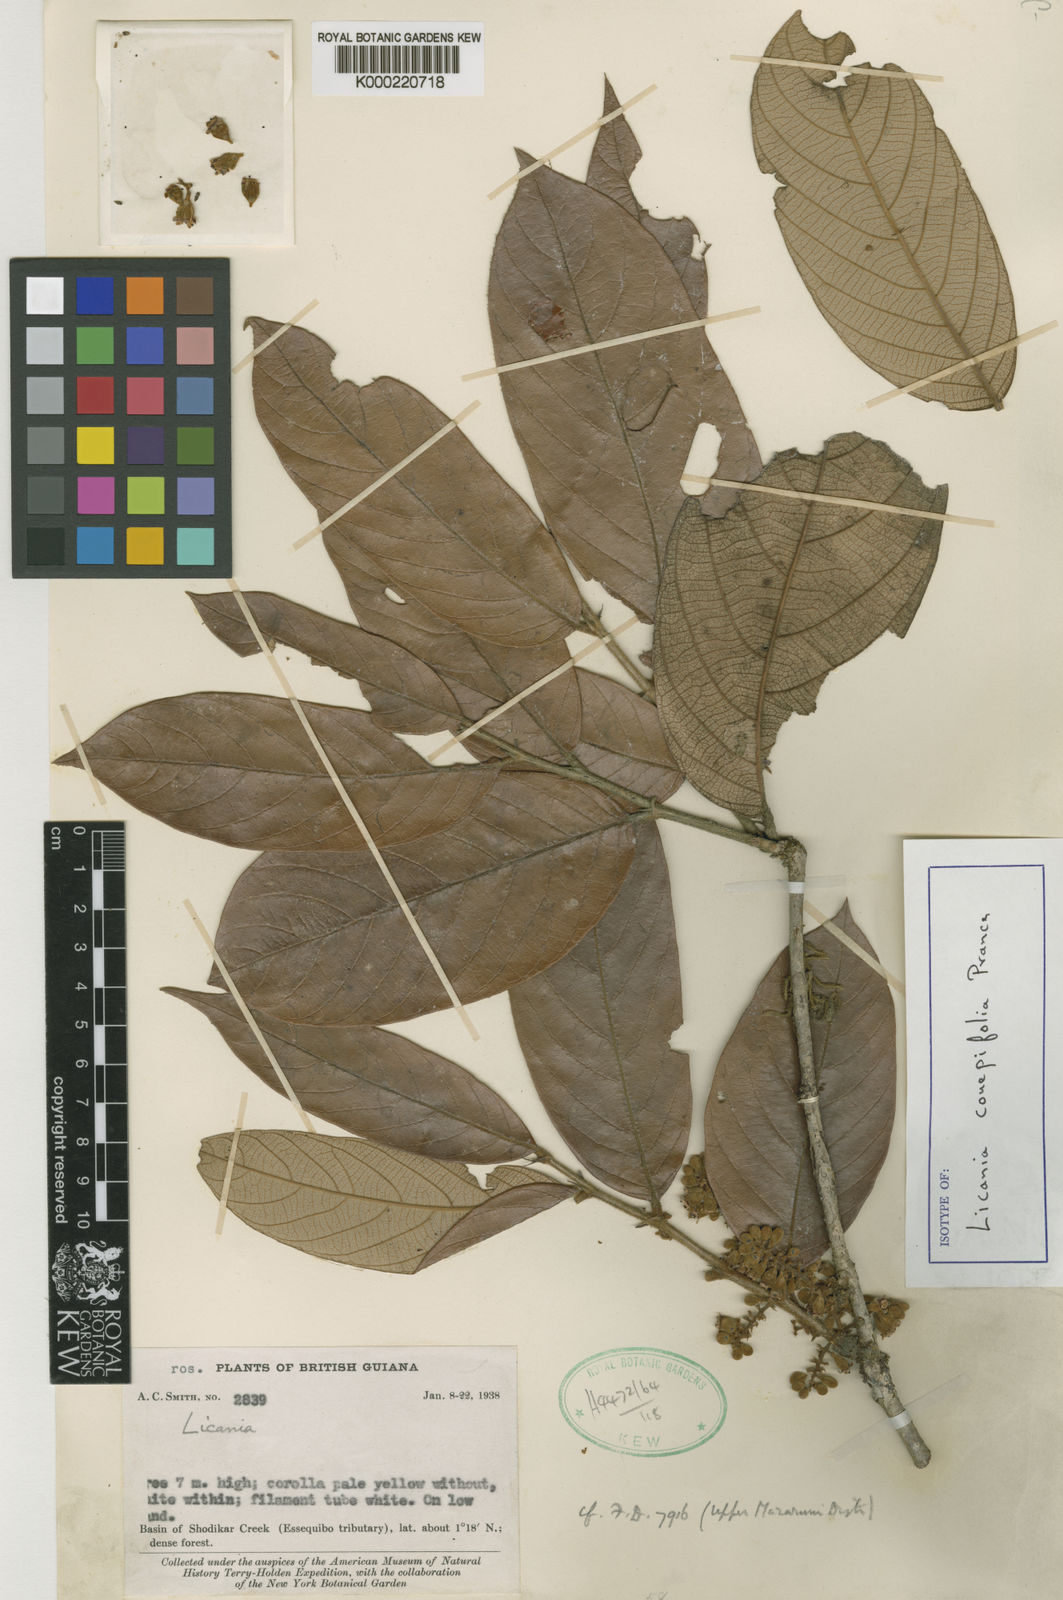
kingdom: Plantae
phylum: Tracheophyta
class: Magnoliopsida
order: Malpighiales
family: Chrysobalanaceae
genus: Licania
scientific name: Licania couepiifolia
